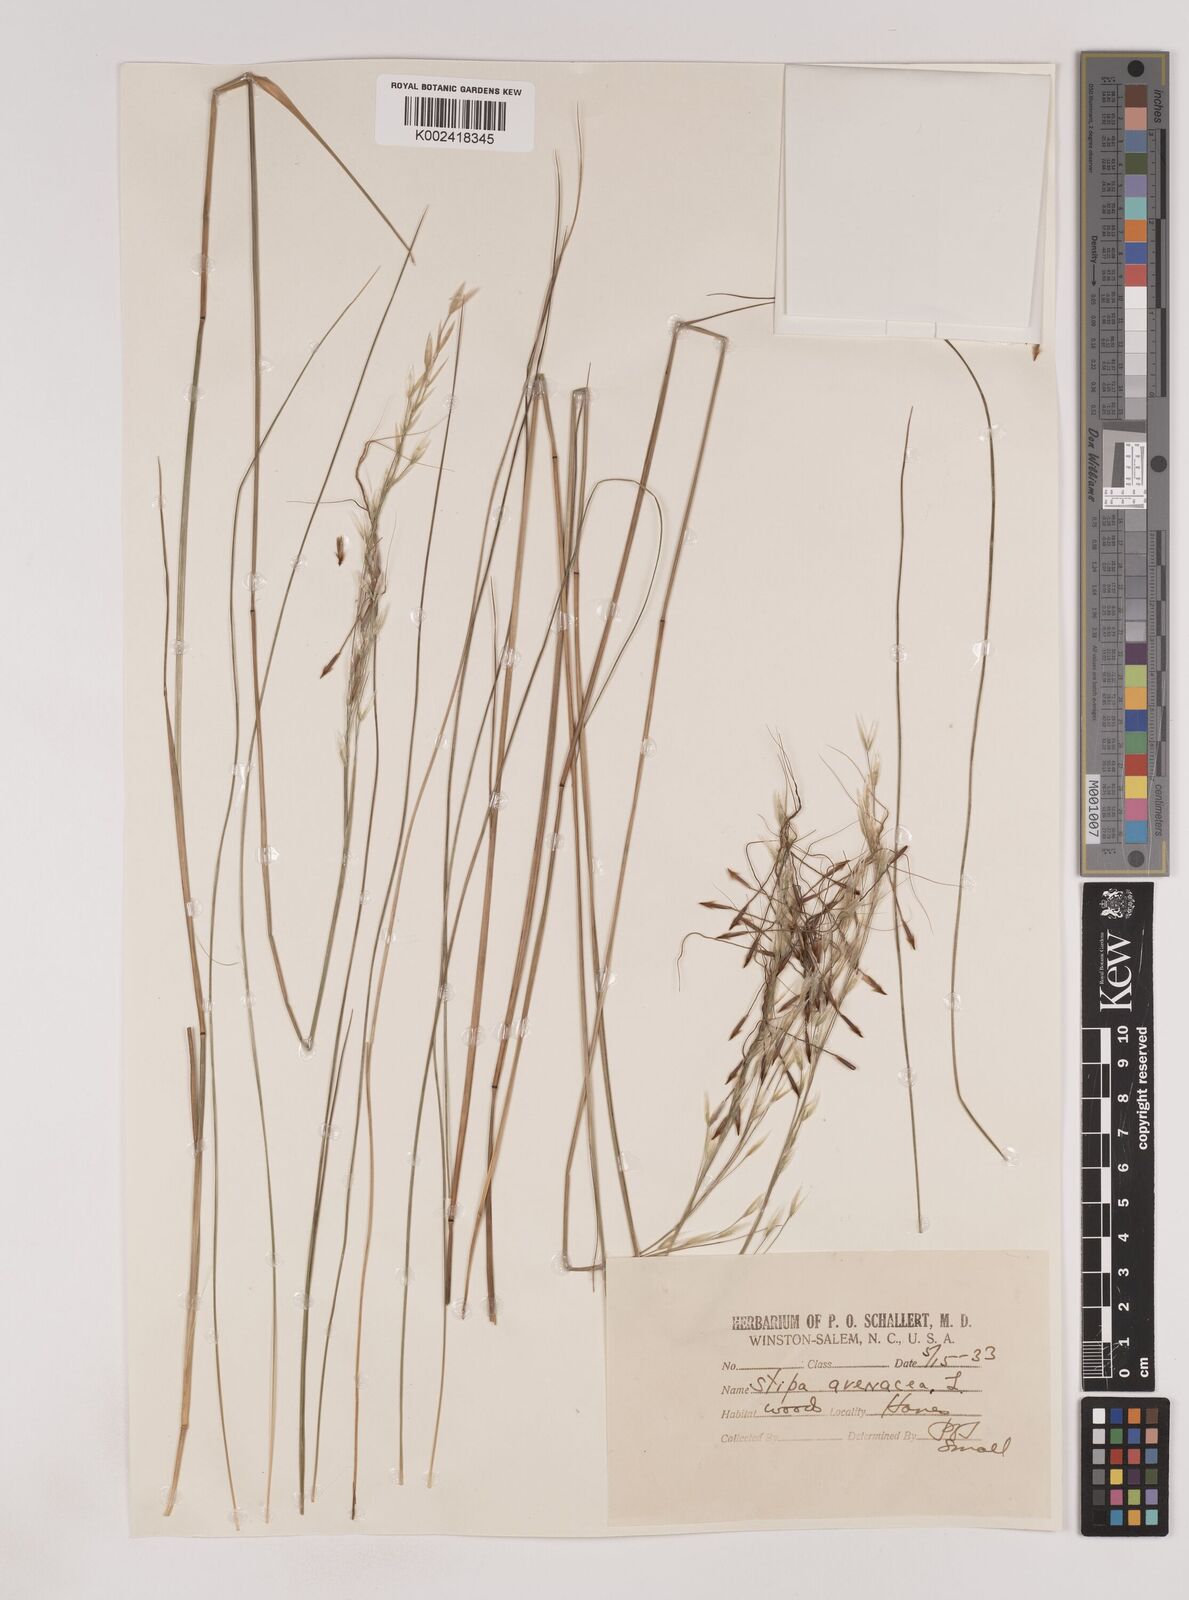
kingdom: Plantae
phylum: Tracheophyta
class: Liliopsida
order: Poales
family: Poaceae
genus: Piptochaetium
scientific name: Piptochaetium avenaceum
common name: Black bunchgrass
